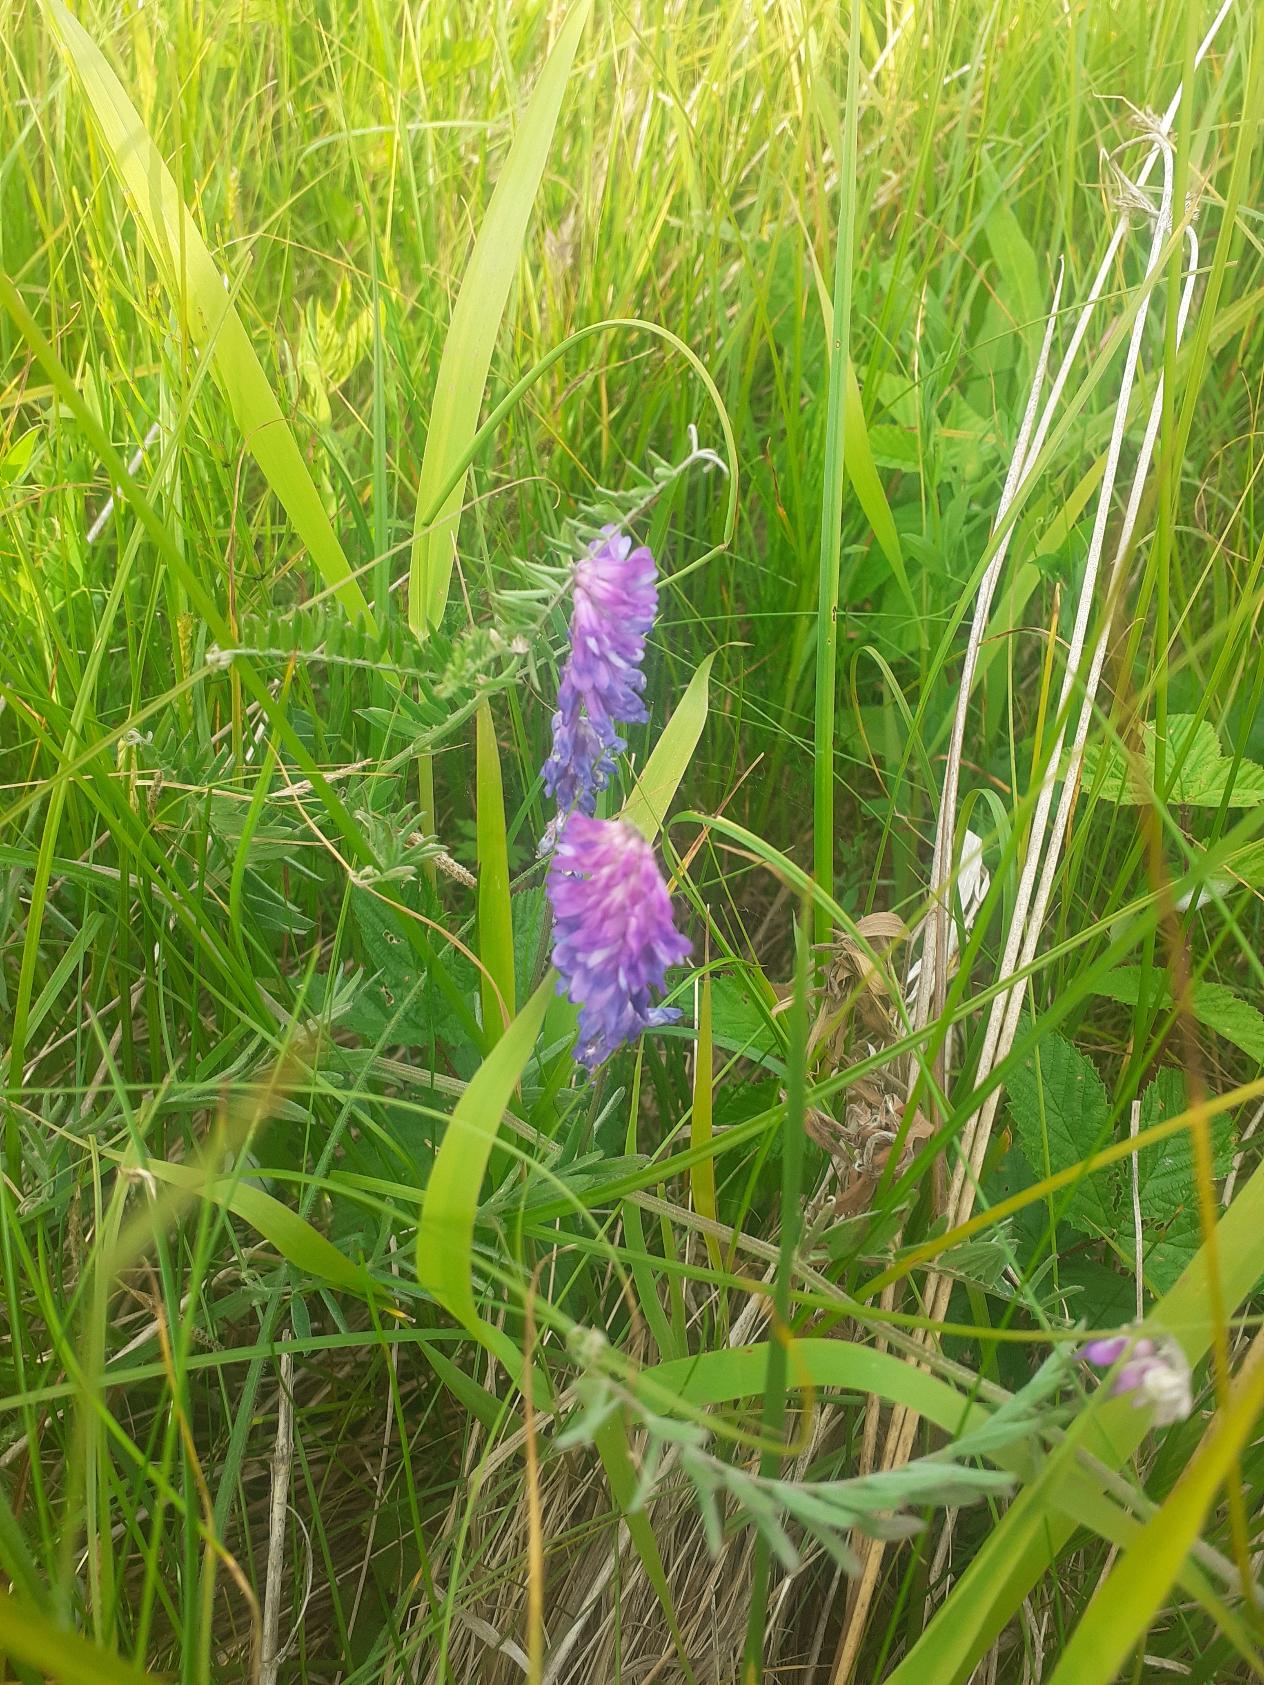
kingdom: Plantae
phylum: Tracheophyta
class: Magnoliopsida
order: Fabales
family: Fabaceae
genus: Vicia
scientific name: Vicia cracca
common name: Muse-vikke
